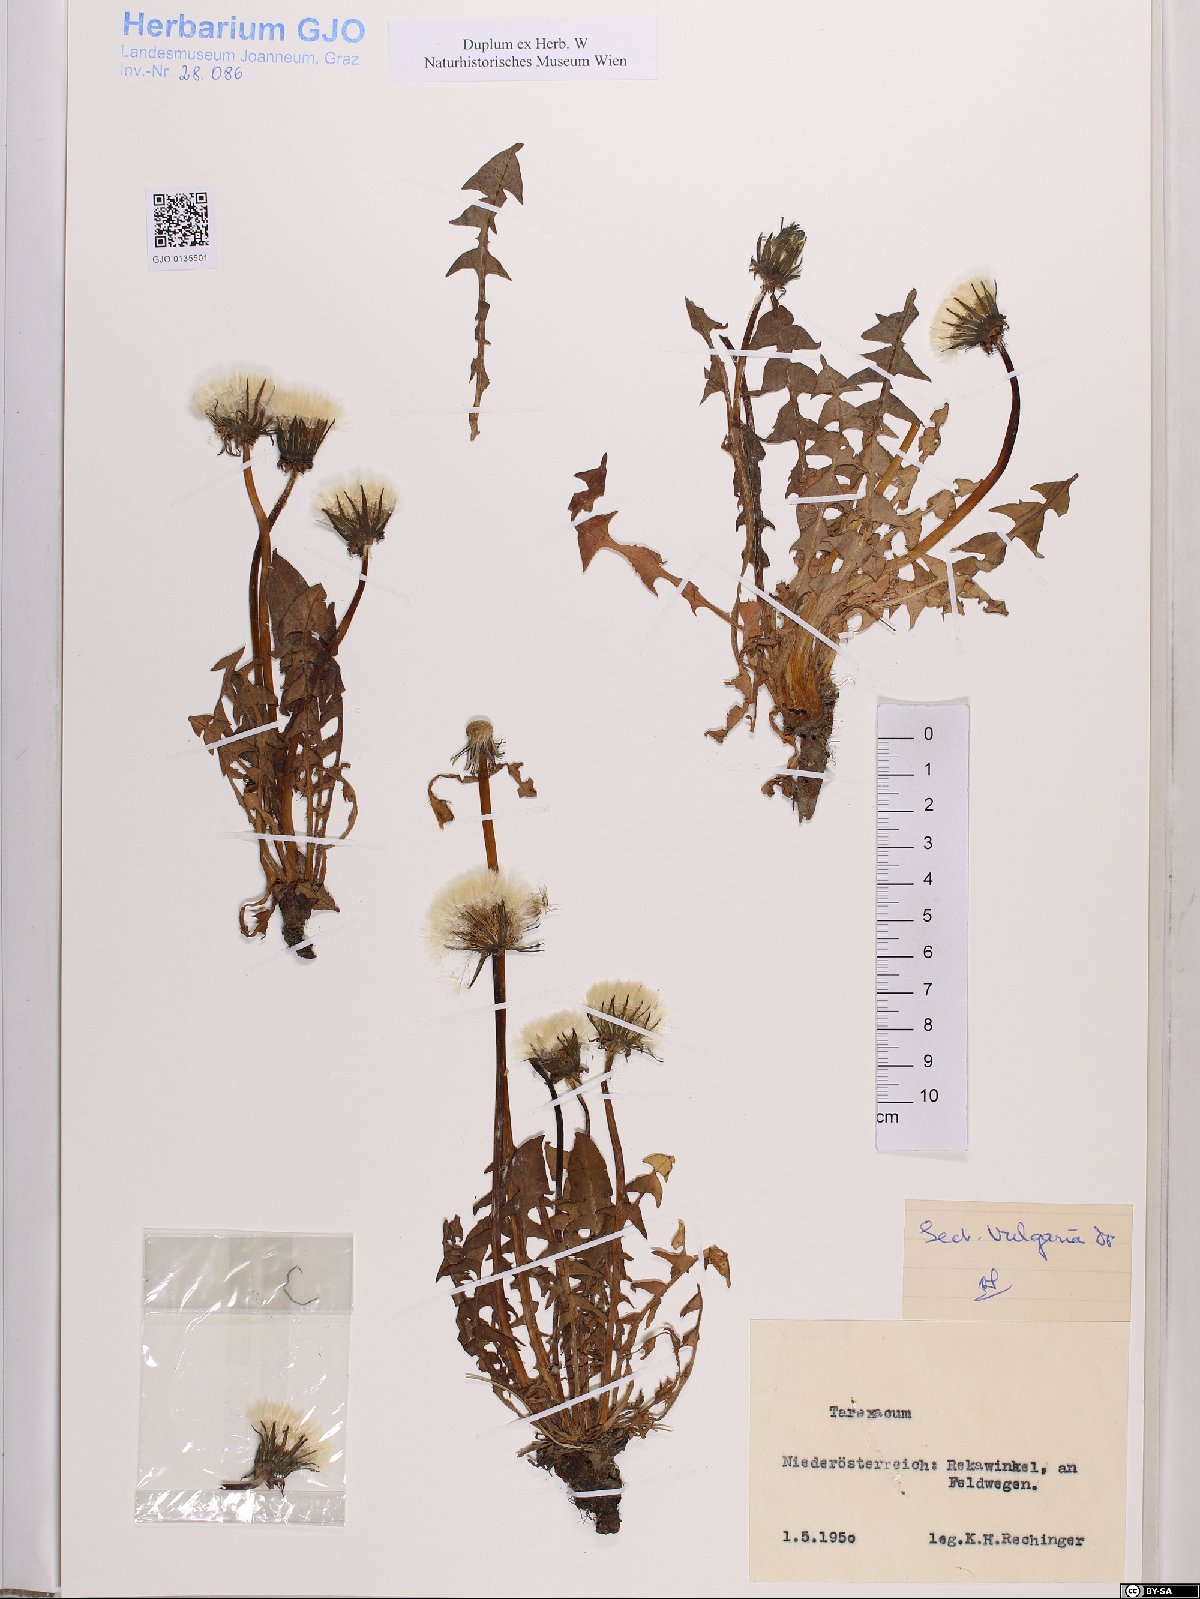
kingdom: Plantae
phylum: Tracheophyta
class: Magnoliopsida
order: Asterales
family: Asteraceae
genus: Taraxacum
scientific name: Taraxacum officinale
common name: Common dandelion
